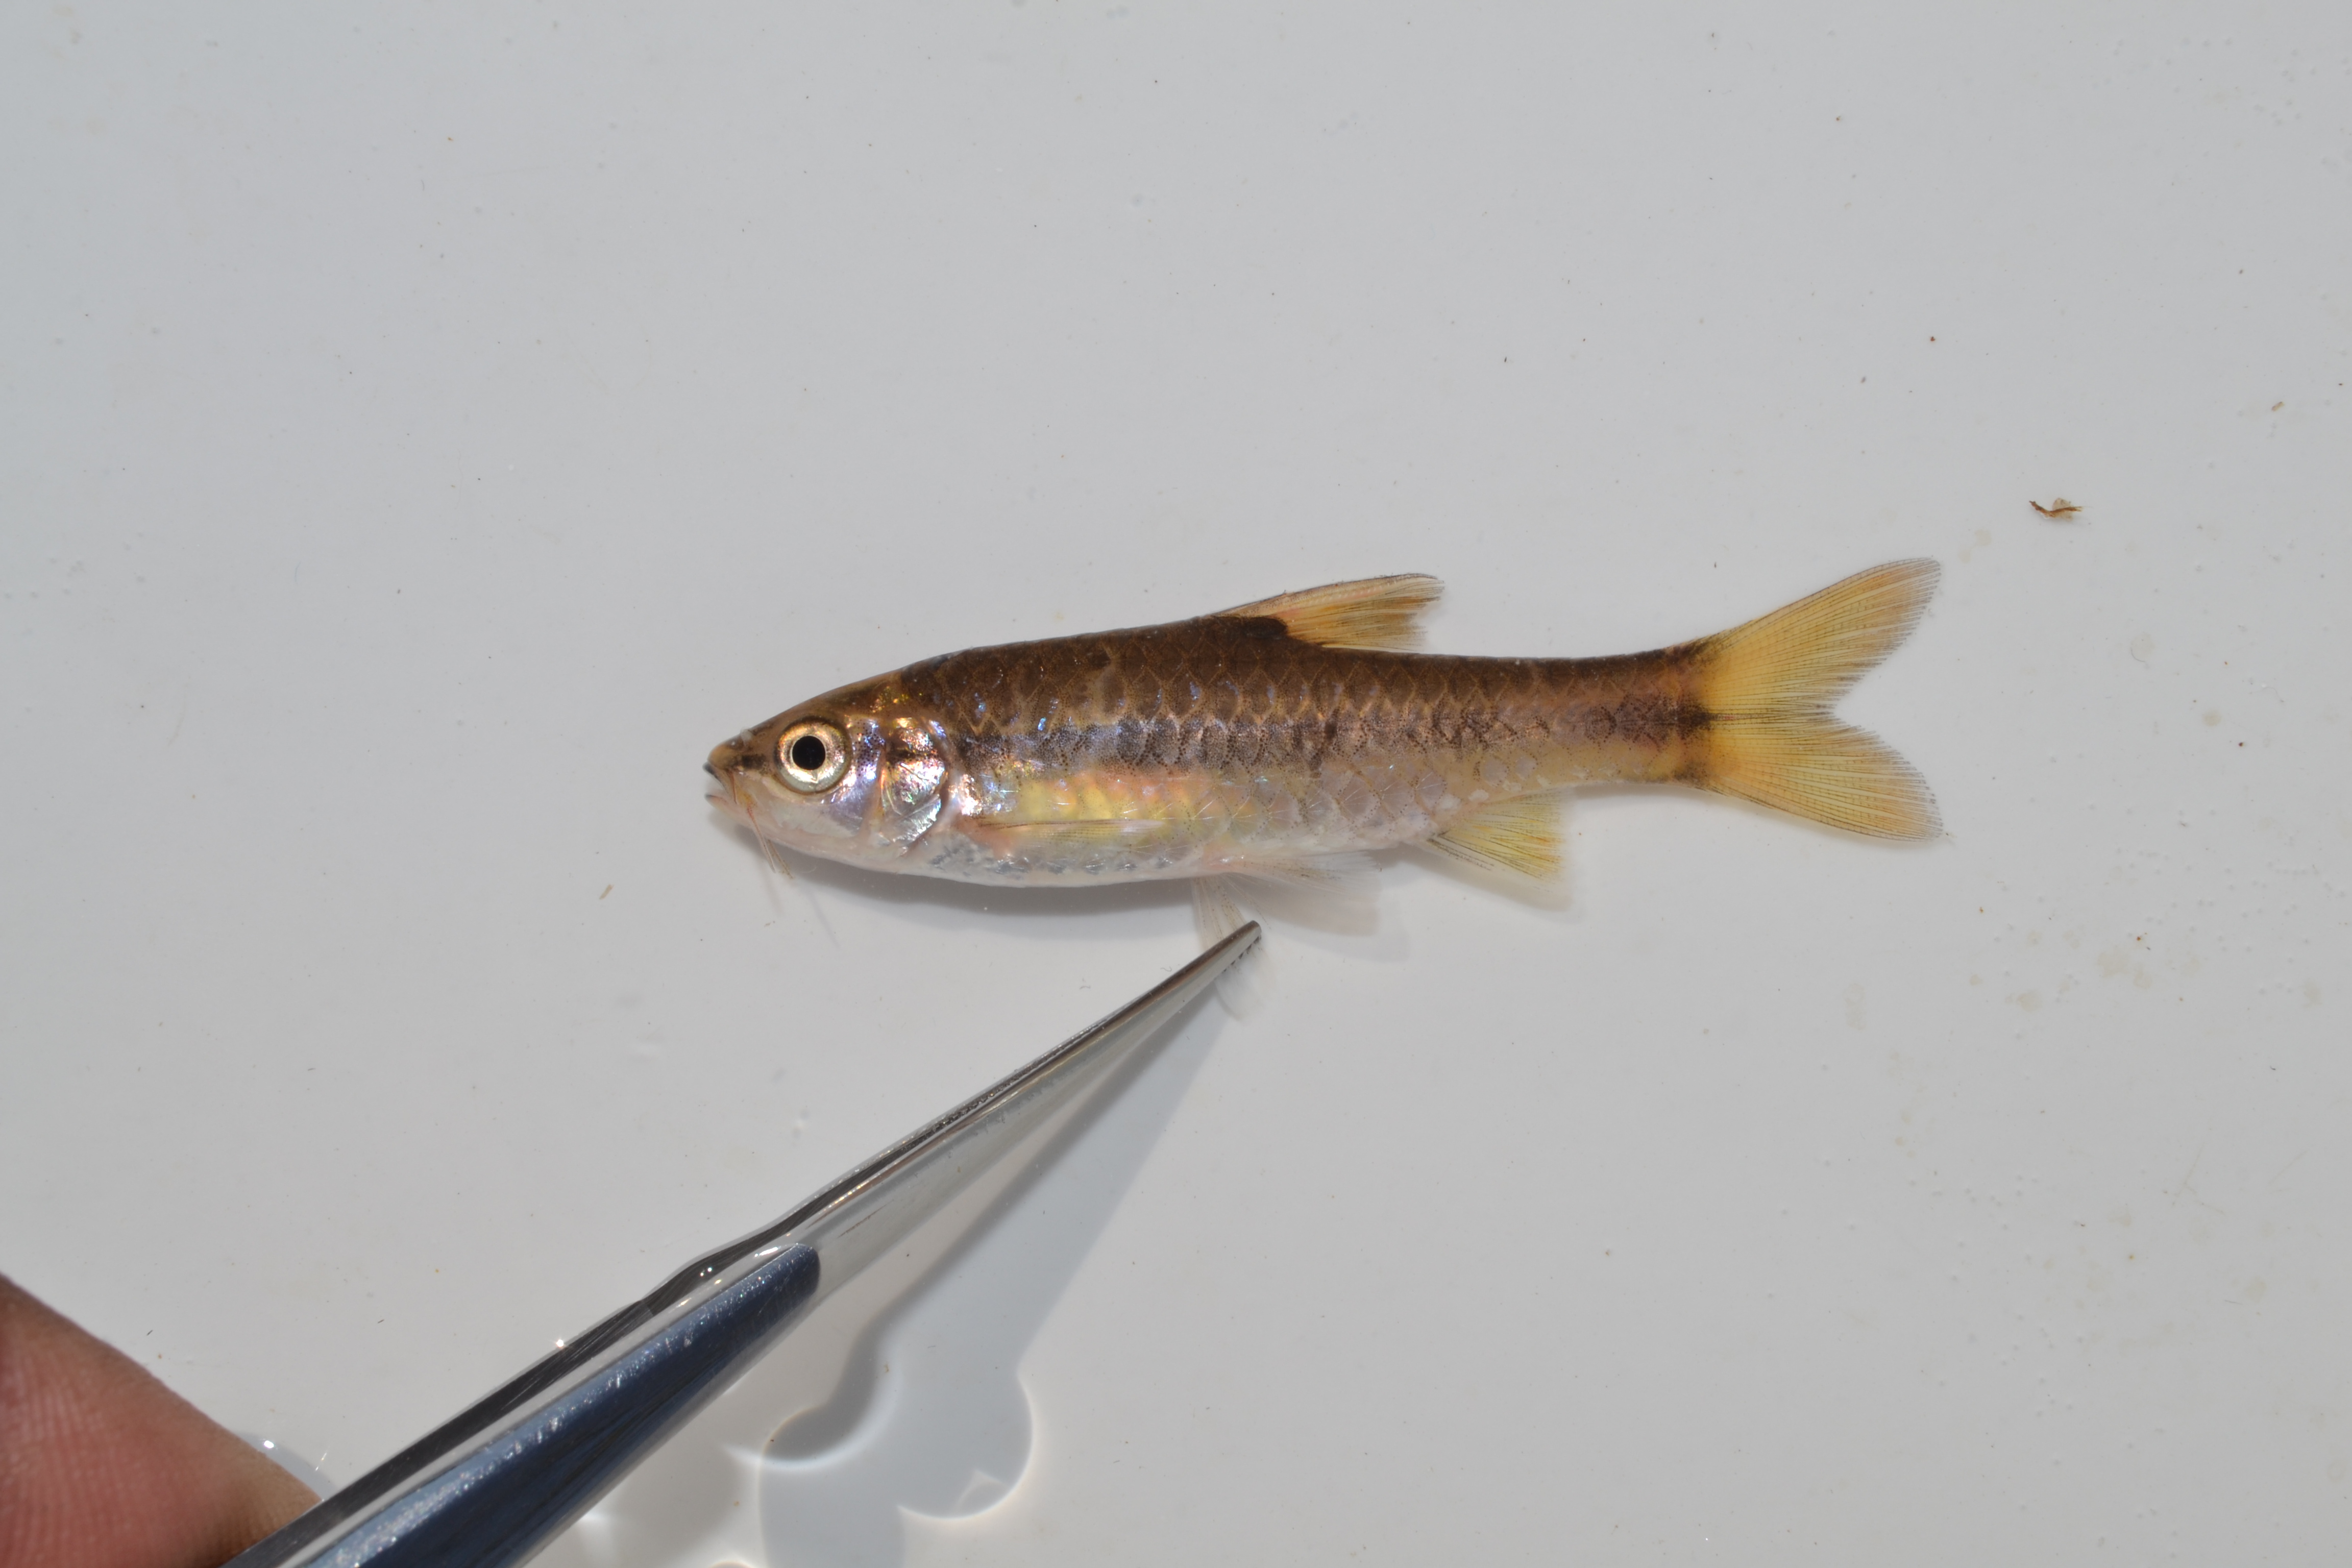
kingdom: Animalia
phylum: Chordata
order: Cypriniformes
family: Cyprinidae
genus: Barbus
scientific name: Barbus
